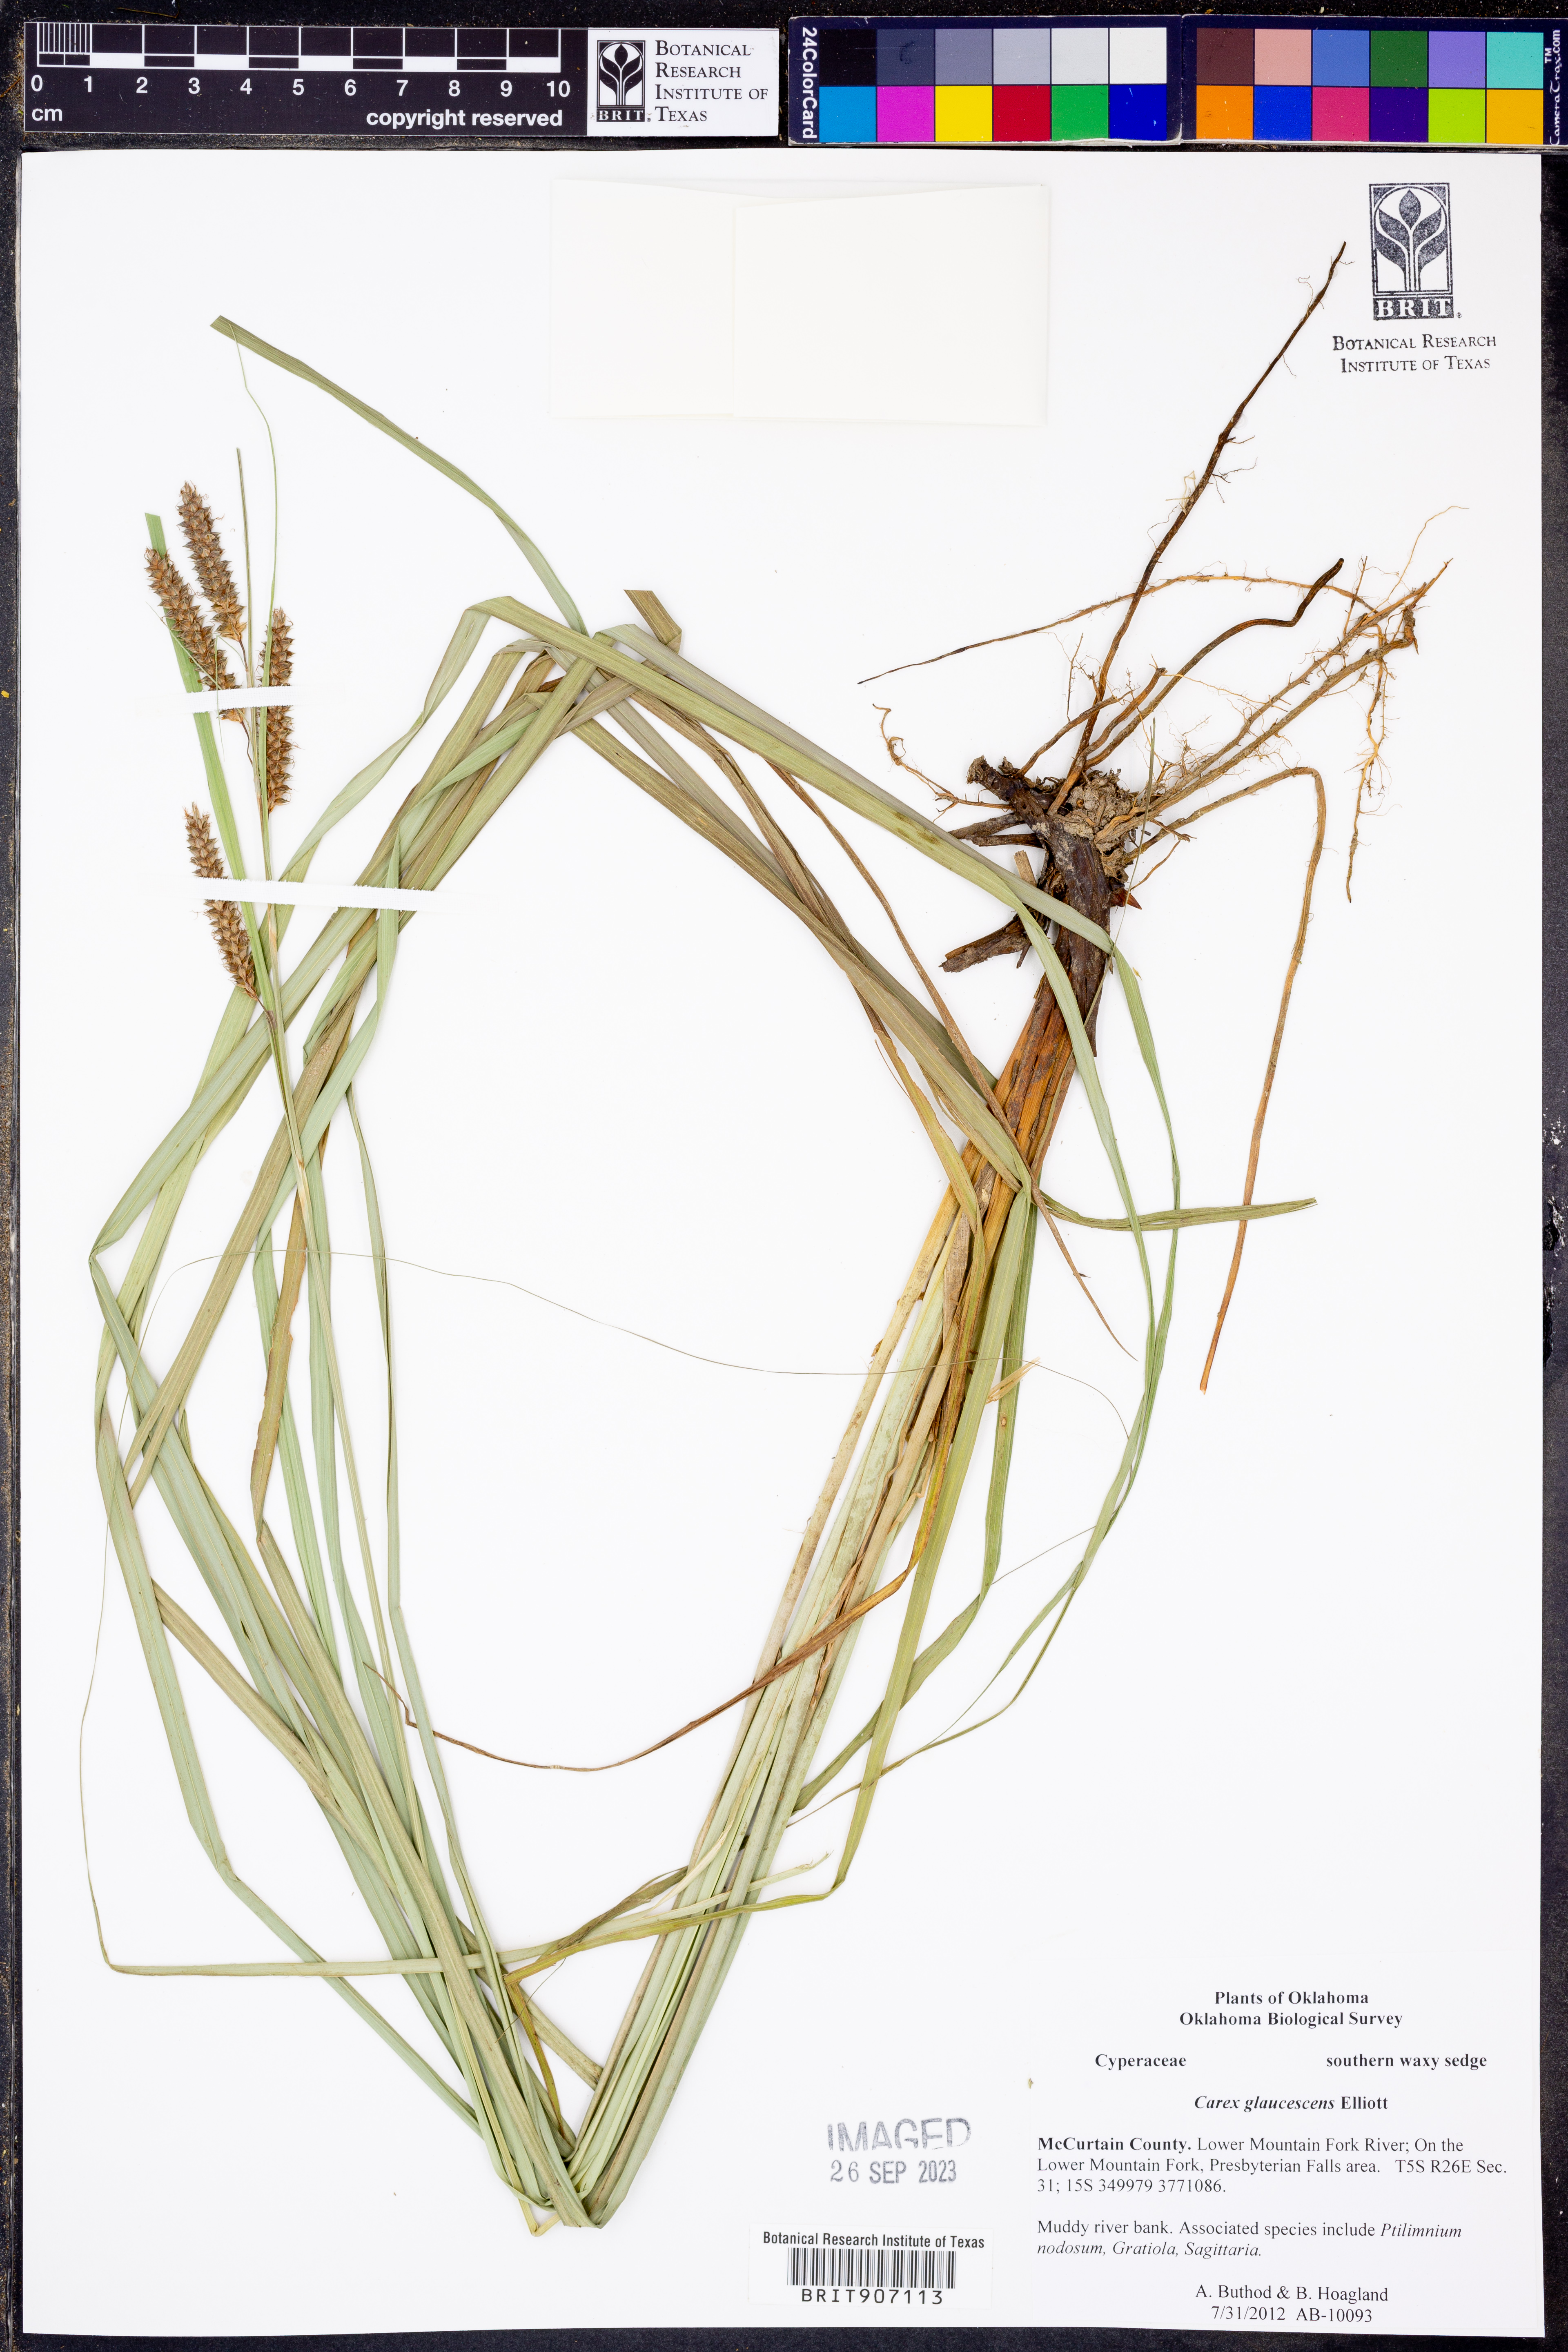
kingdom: Plantae
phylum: Tracheophyta
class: Liliopsida
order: Poales
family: Cyperaceae
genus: Carex
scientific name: Carex glaucescens
